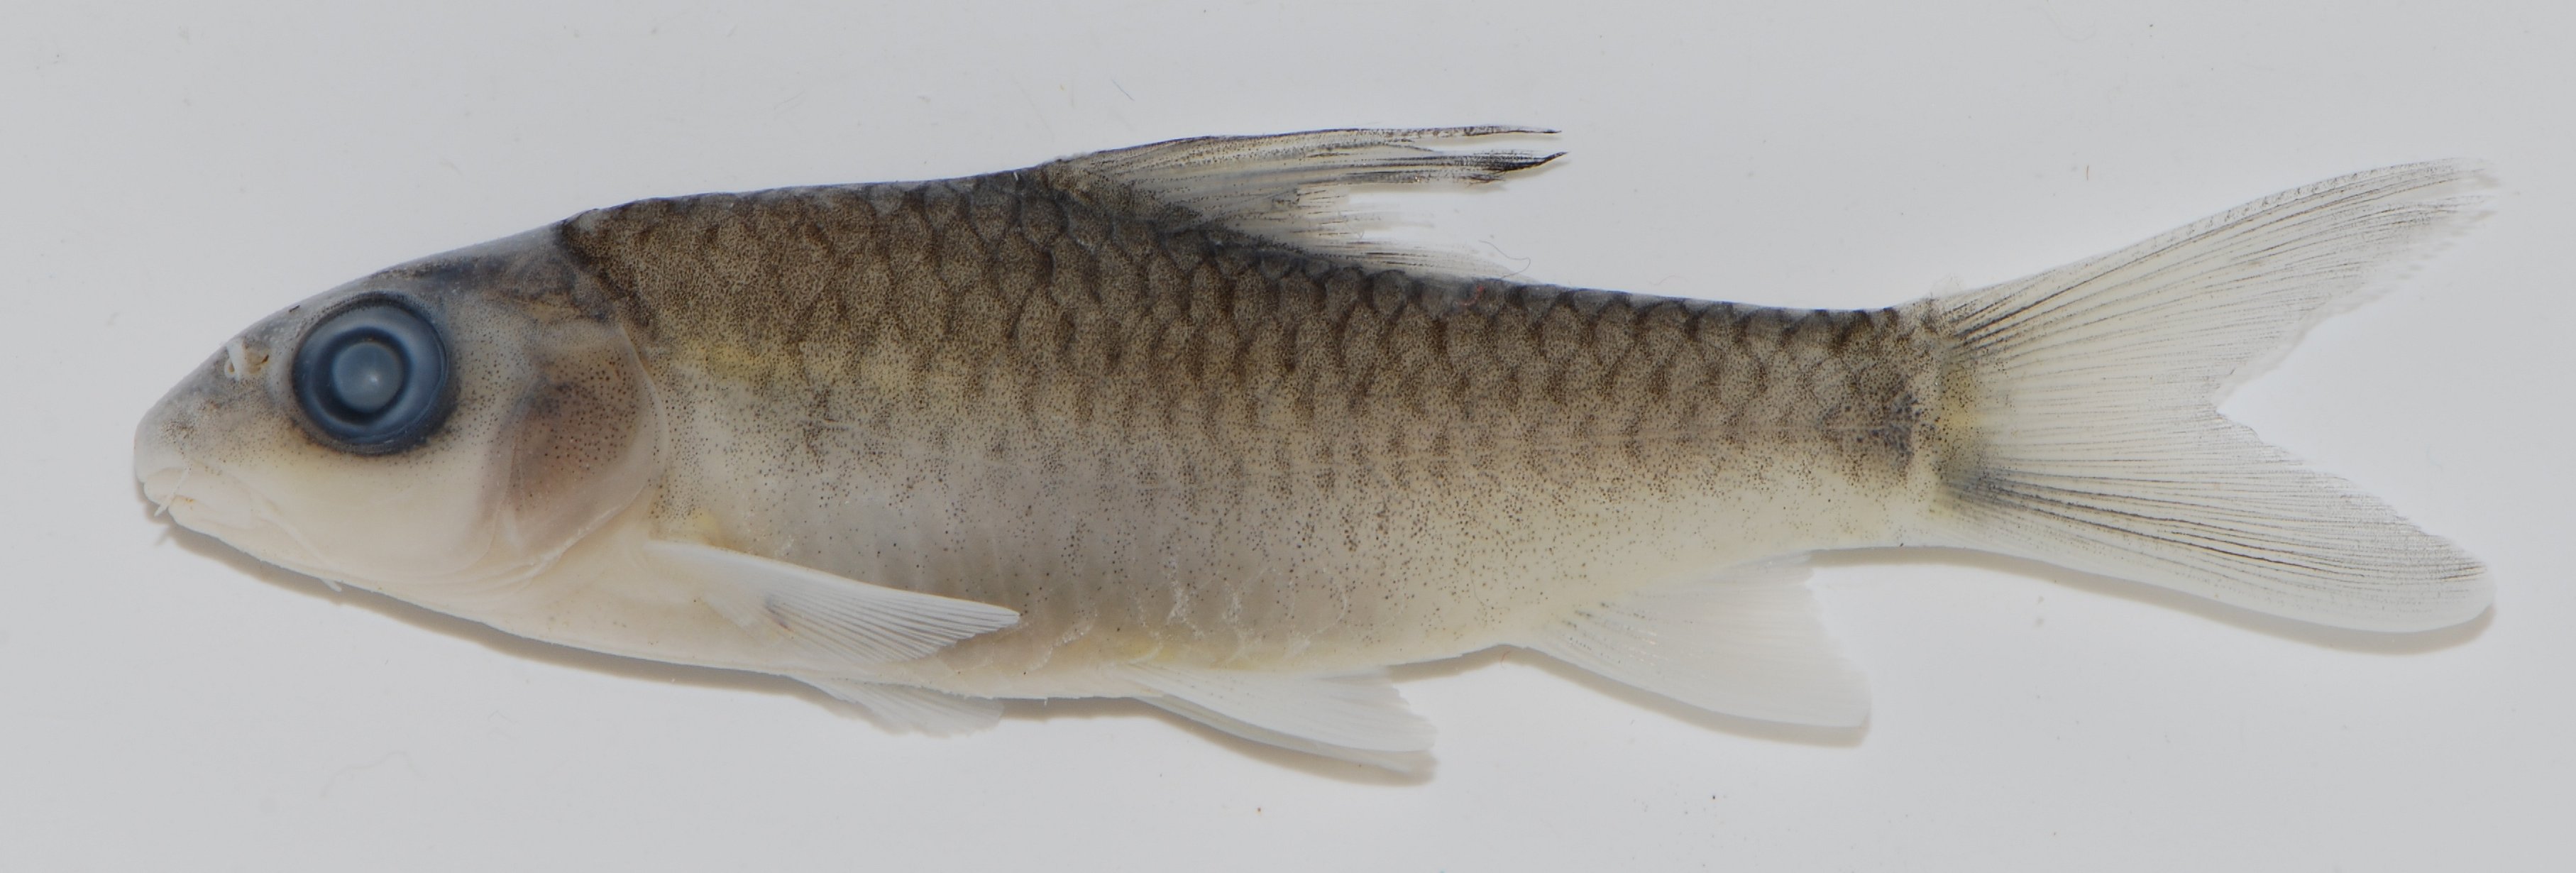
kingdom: Animalia
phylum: Chordata
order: Cypriniformes
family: Cyprinidae
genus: Labeobarbus
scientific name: Labeobarbus
